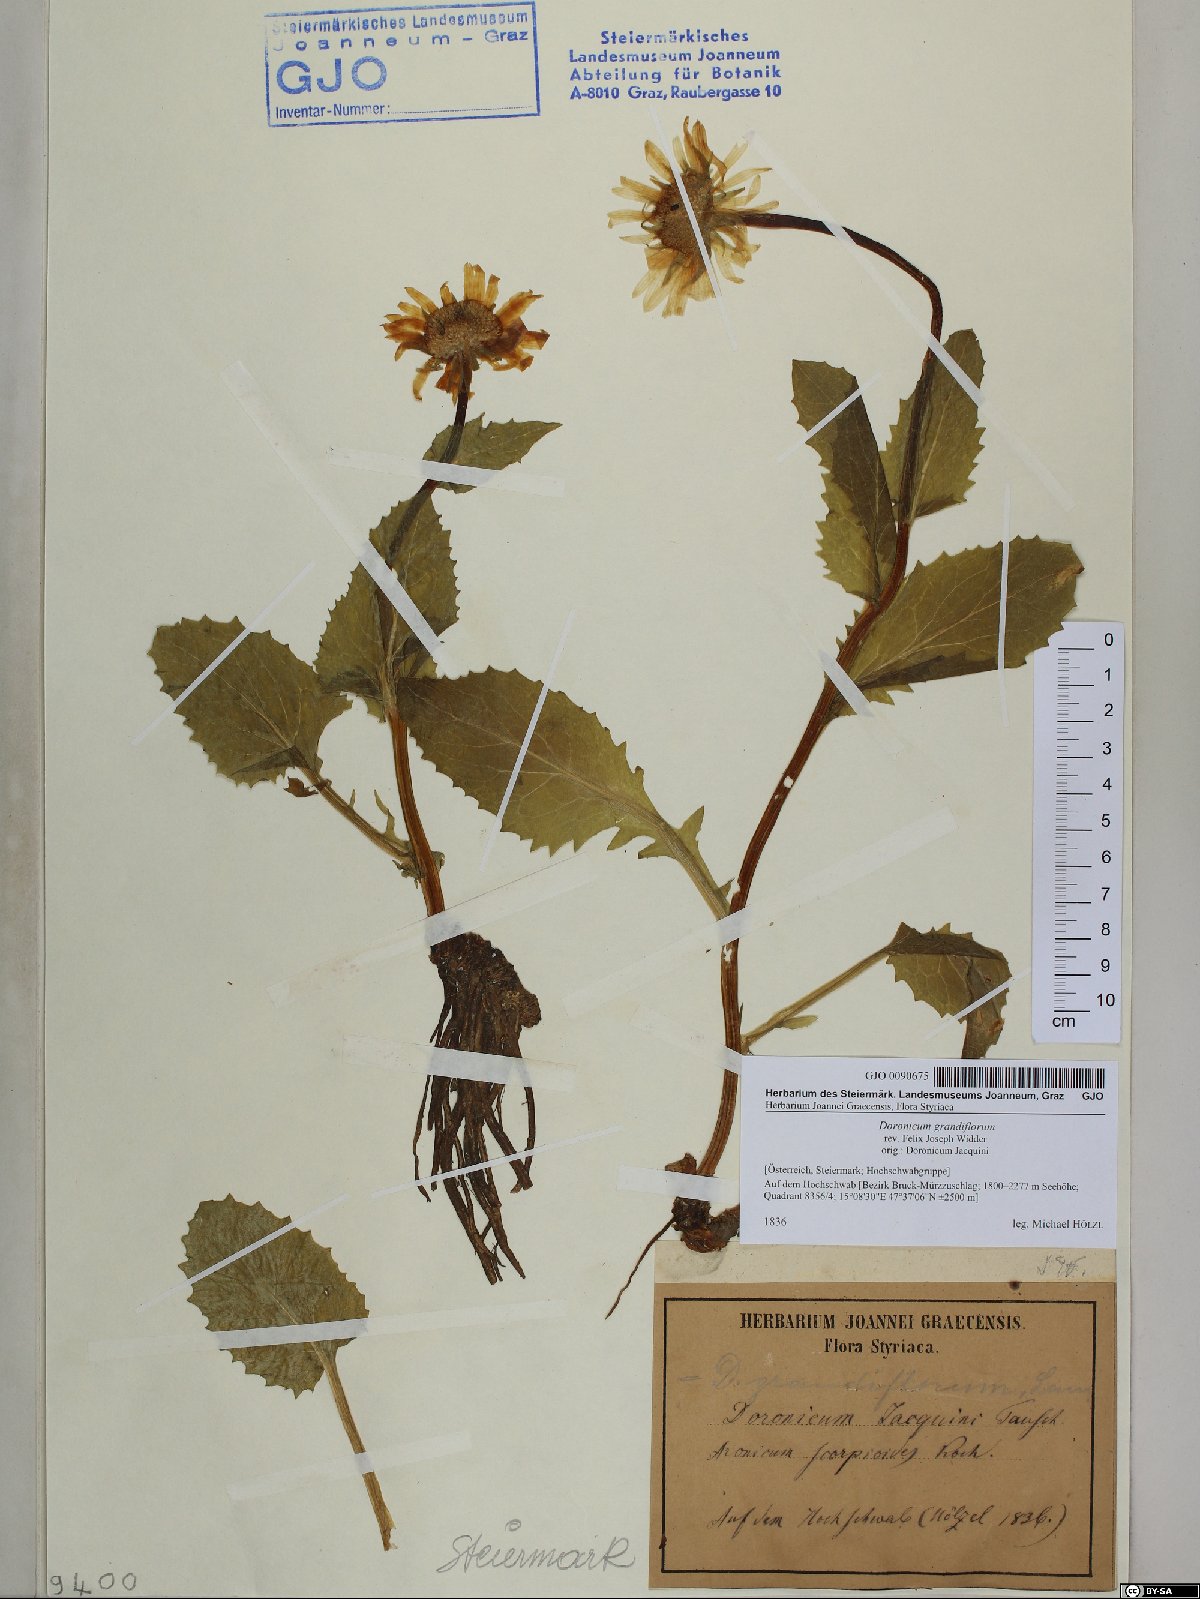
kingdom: Plantae
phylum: Tracheophyta
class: Magnoliopsida
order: Asterales
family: Asteraceae
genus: Doronicum
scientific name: Doronicum grandiflorum
